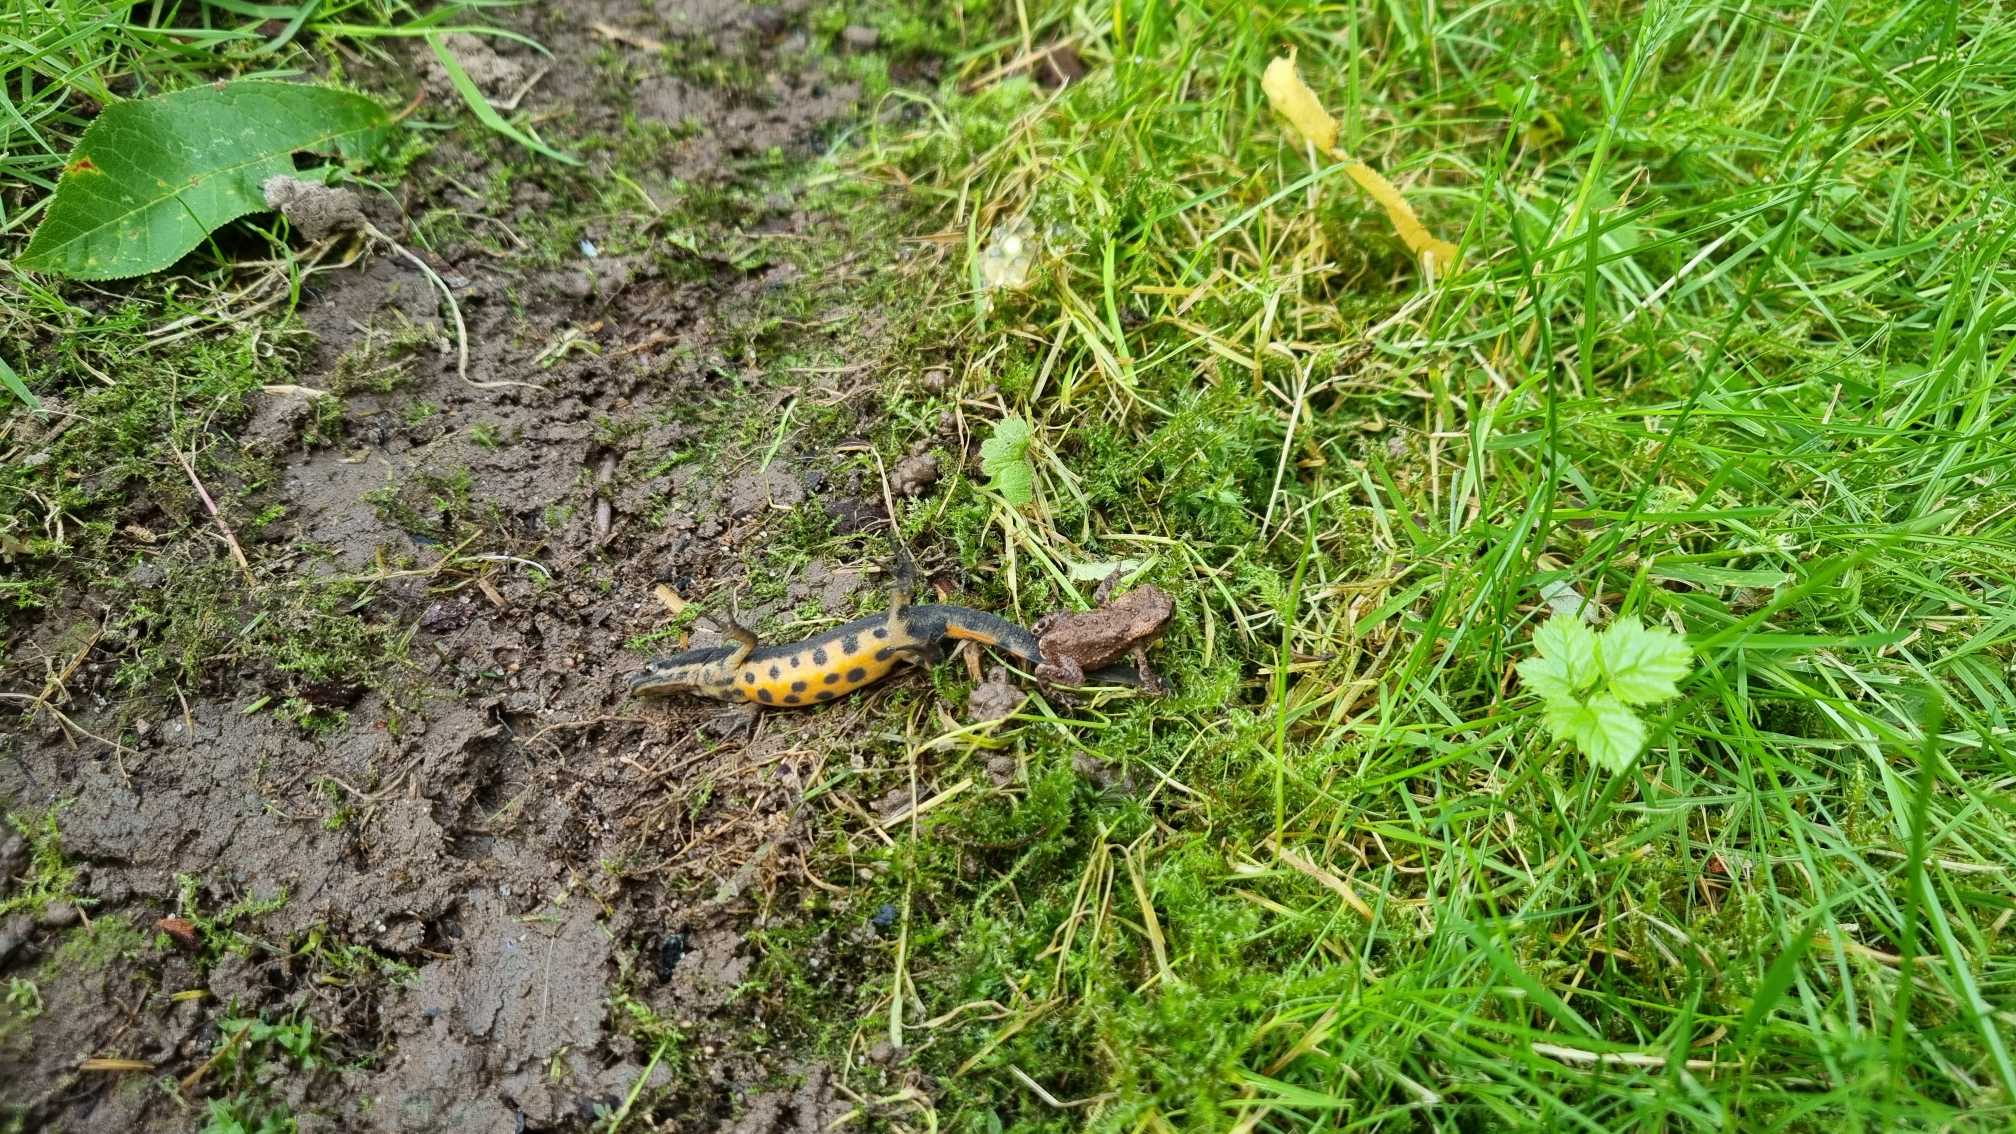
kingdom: Animalia
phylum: Chordata
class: Amphibia
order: Caudata
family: Salamandridae
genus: Lissotriton
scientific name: Lissotriton vulgaris
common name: Lille vandsalamander
